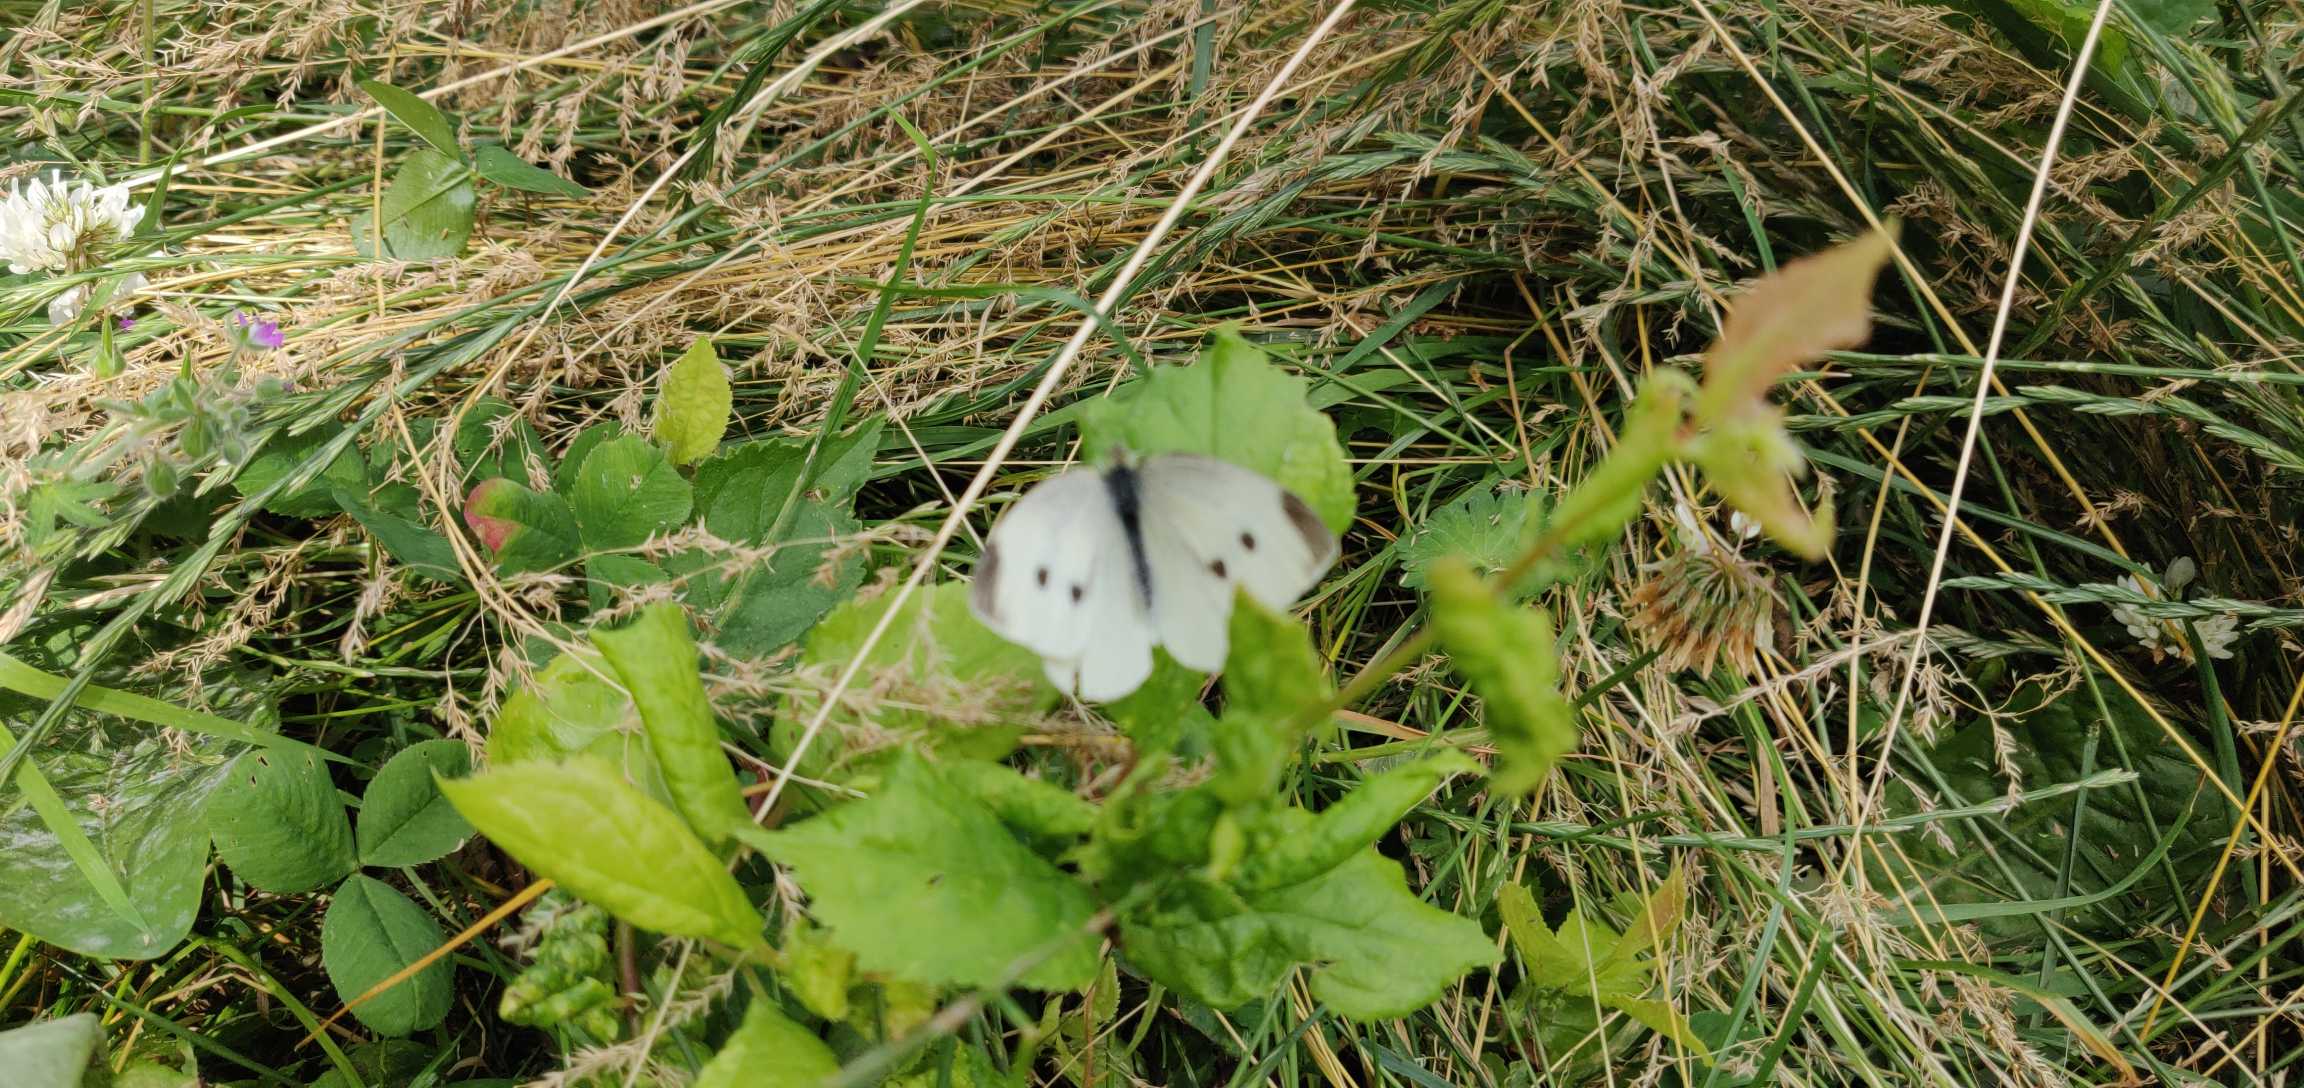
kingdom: Animalia
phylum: Arthropoda
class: Insecta
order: Lepidoptera
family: Pieridae
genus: Pieris
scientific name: Pieris rapae
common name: Lille kålsommerfugl
